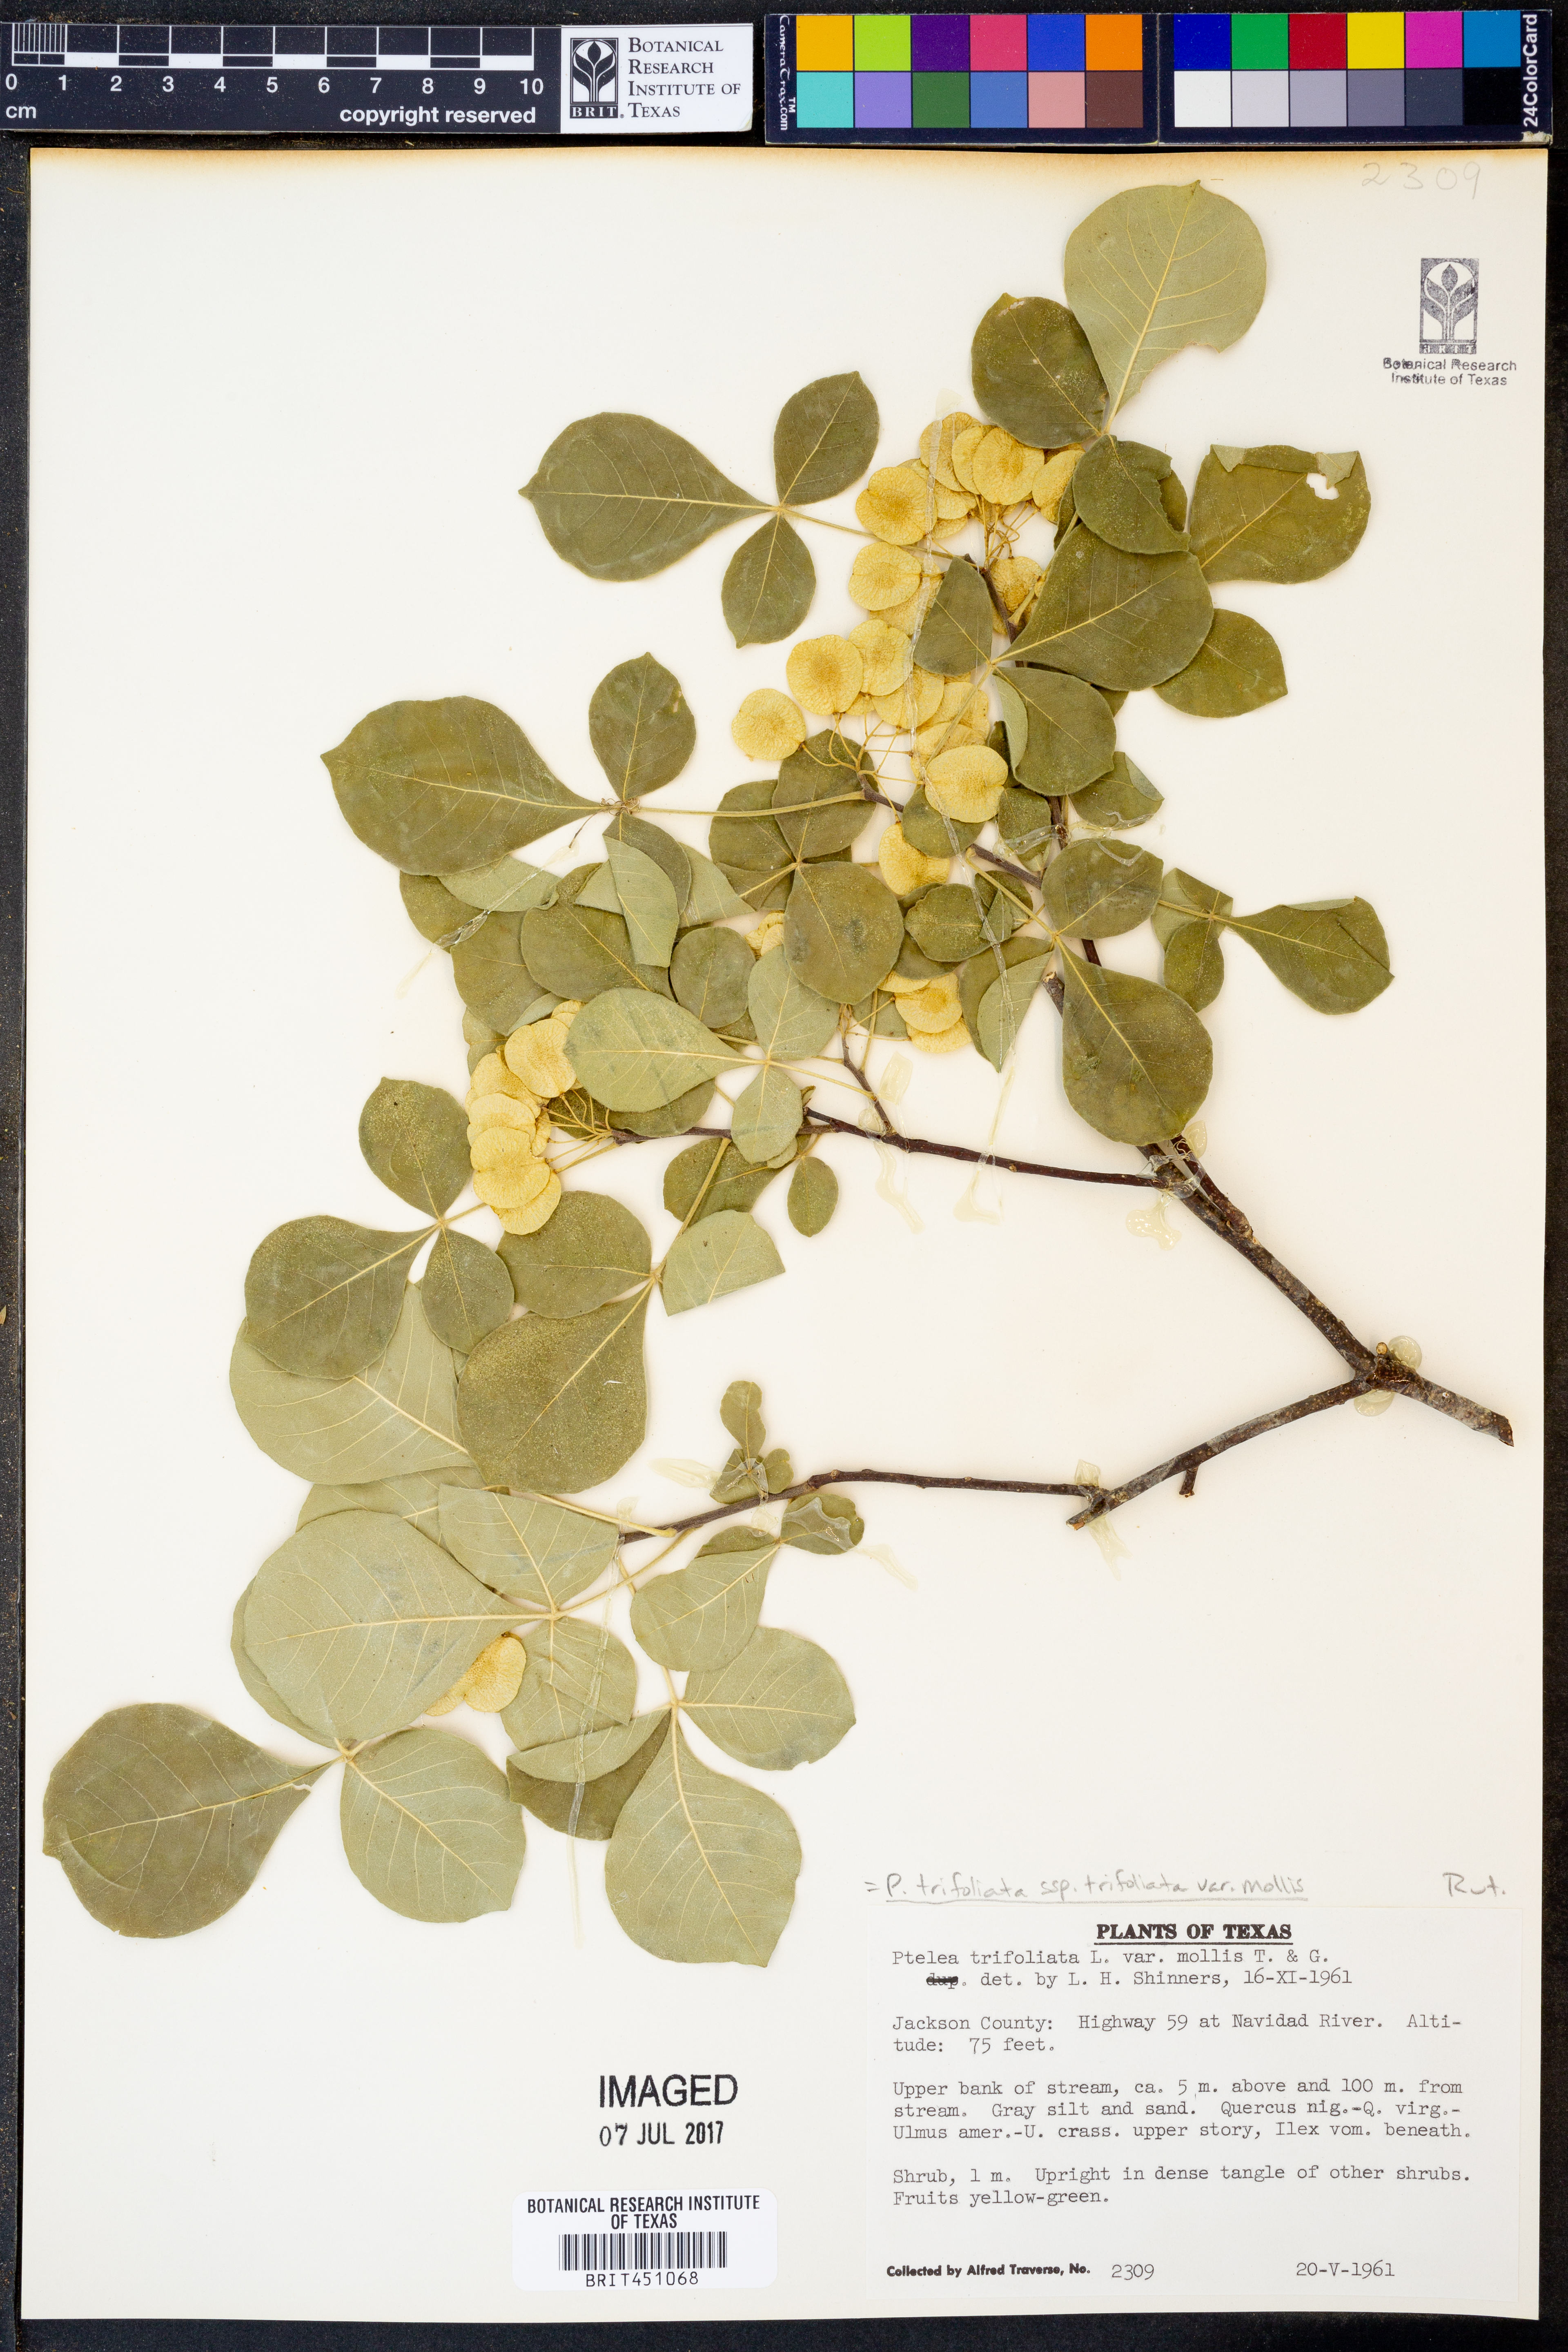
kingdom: Plantae
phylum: Tracheophyta
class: Magnoliopsida
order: Sapindales
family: Rutaceae
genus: Ptelea
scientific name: Ptelea trifoliata
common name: Common hop-tree
